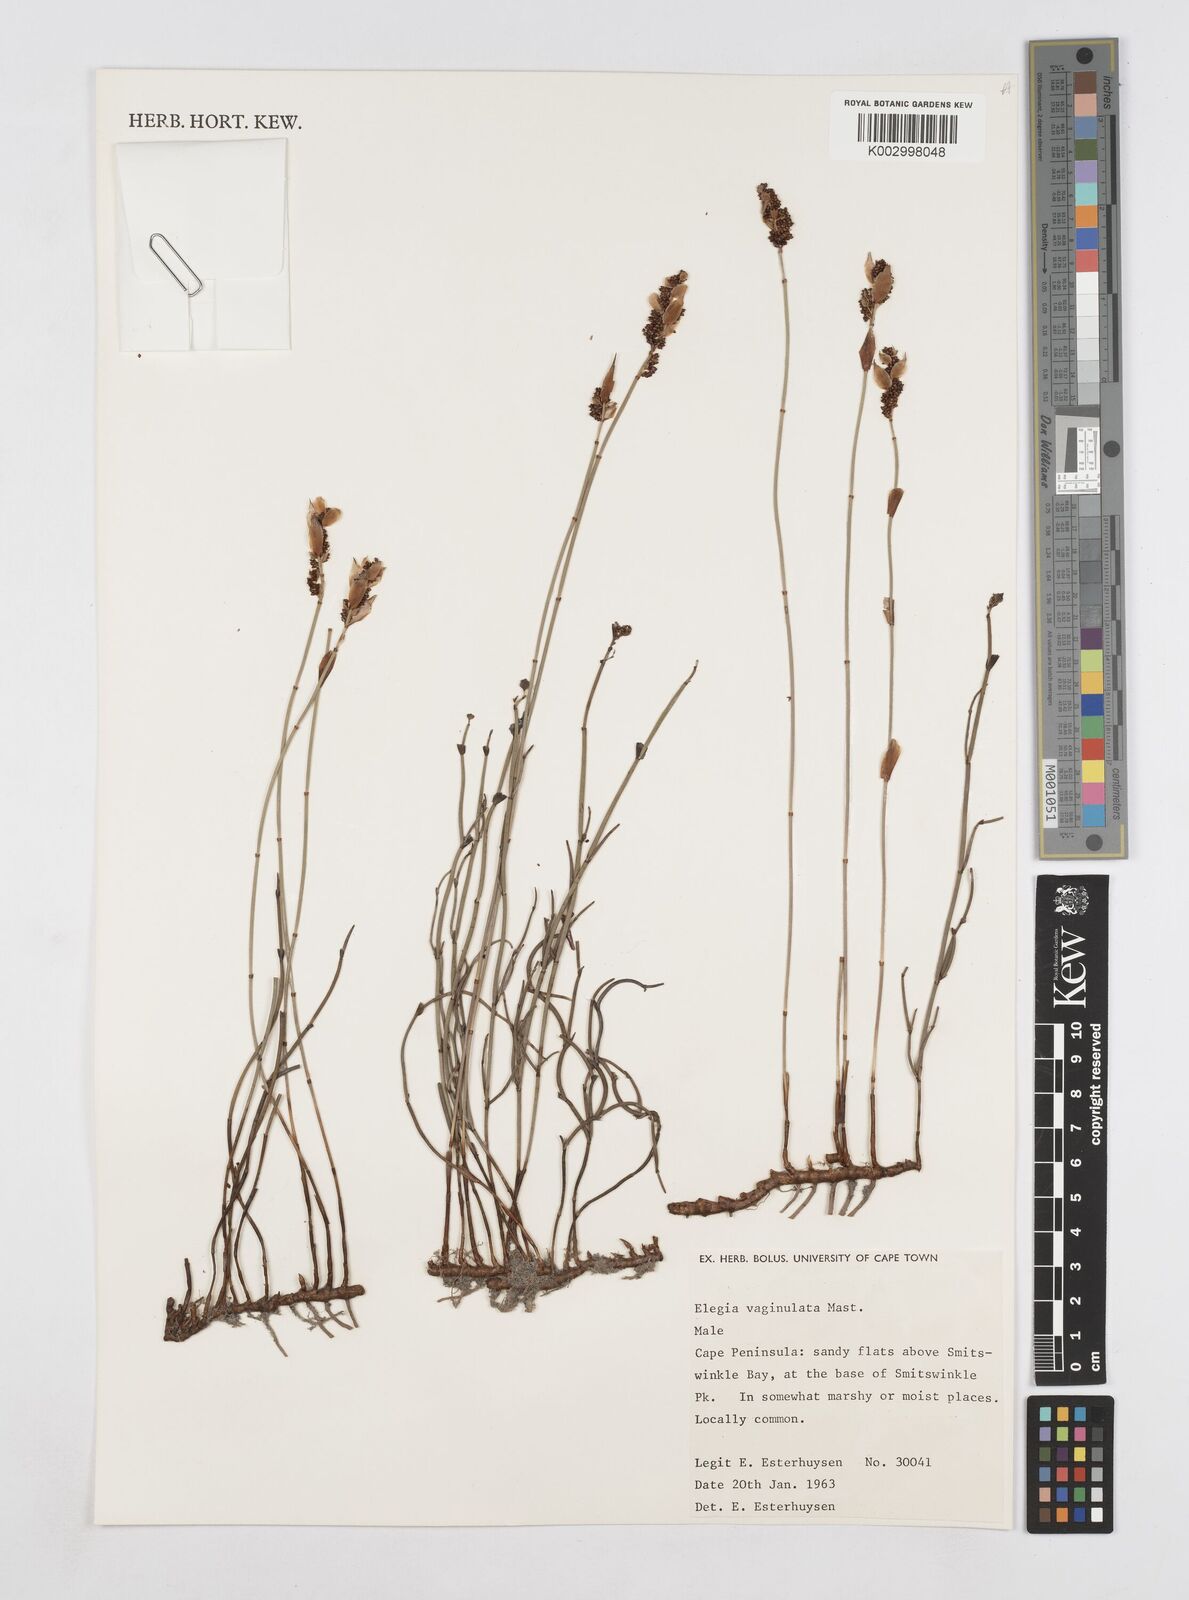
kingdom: Plantae
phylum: Tracheophyta
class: Liliopsida
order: Poales
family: Restionaceae
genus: Elegia
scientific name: Elegia vaginulata
